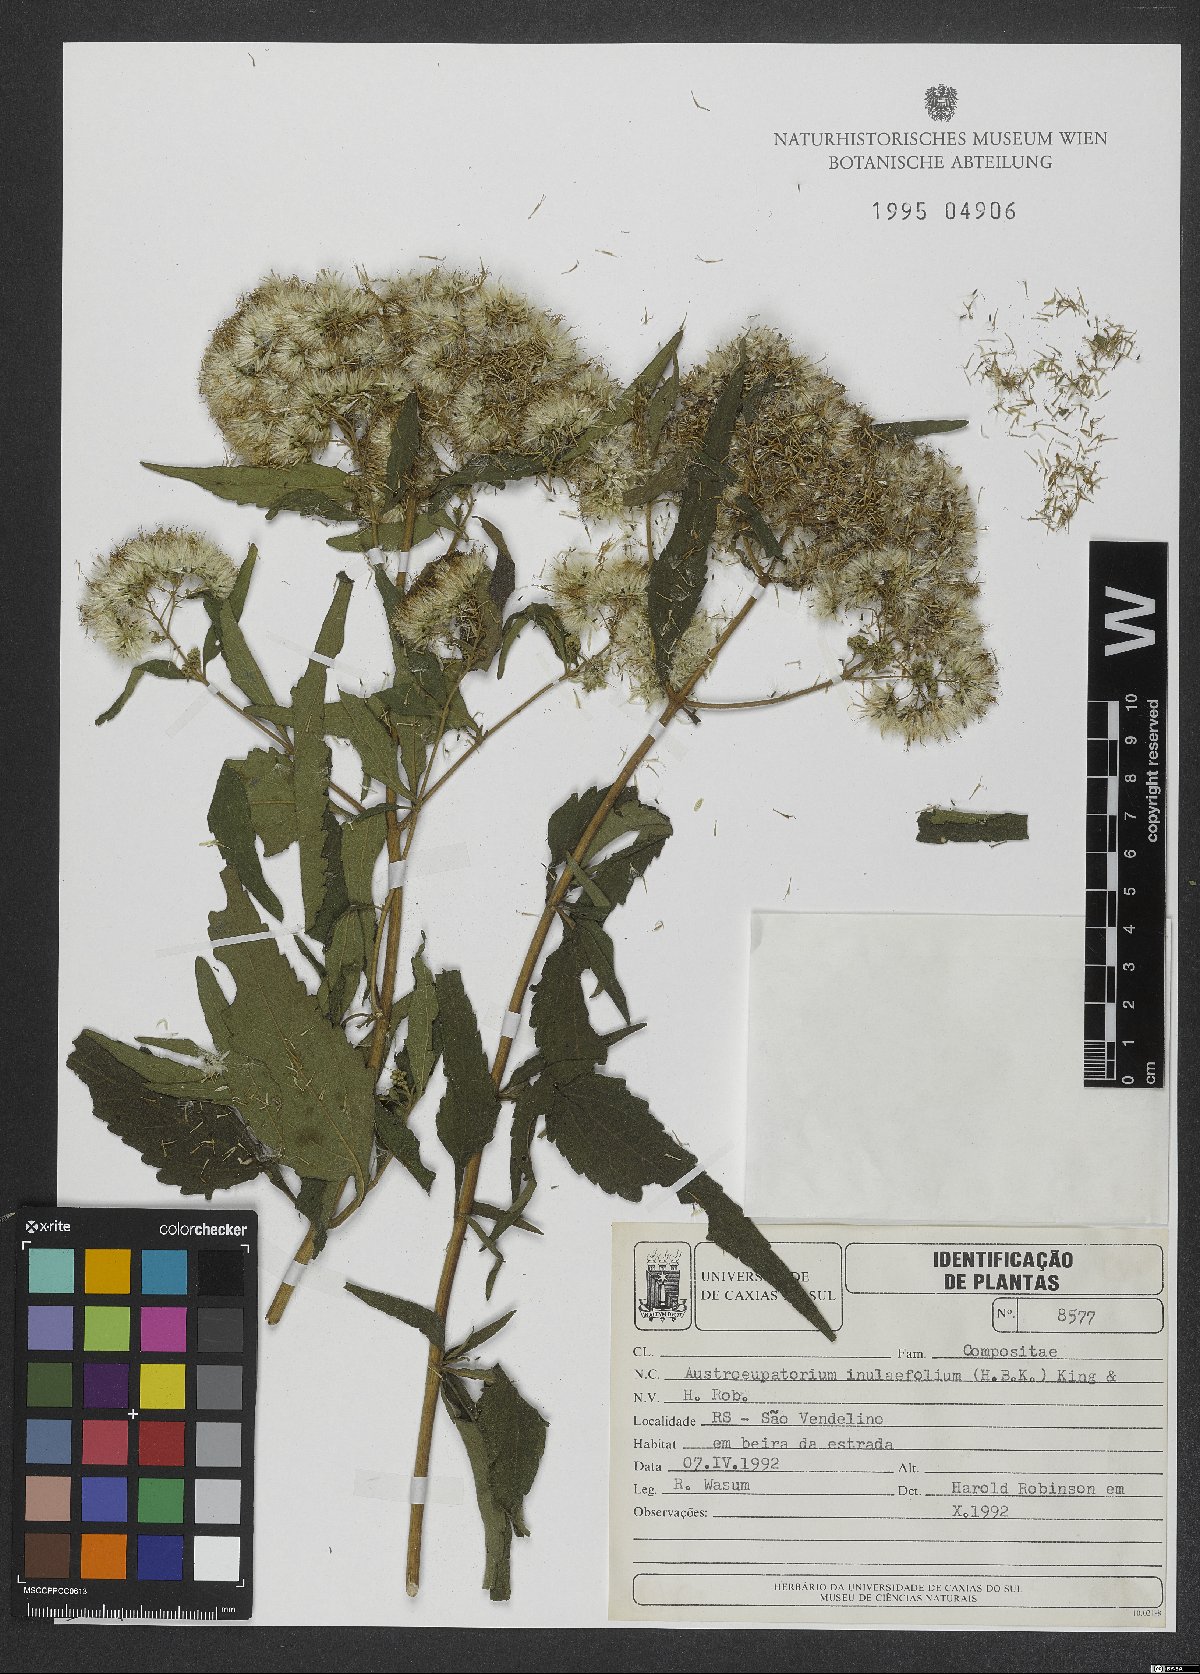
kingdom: Plantae
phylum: Tracheophyta
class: Magnoliopsida
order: Asterales
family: Asteraceae
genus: Austroeupatorium
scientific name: Austroeupatorium inulifolium
